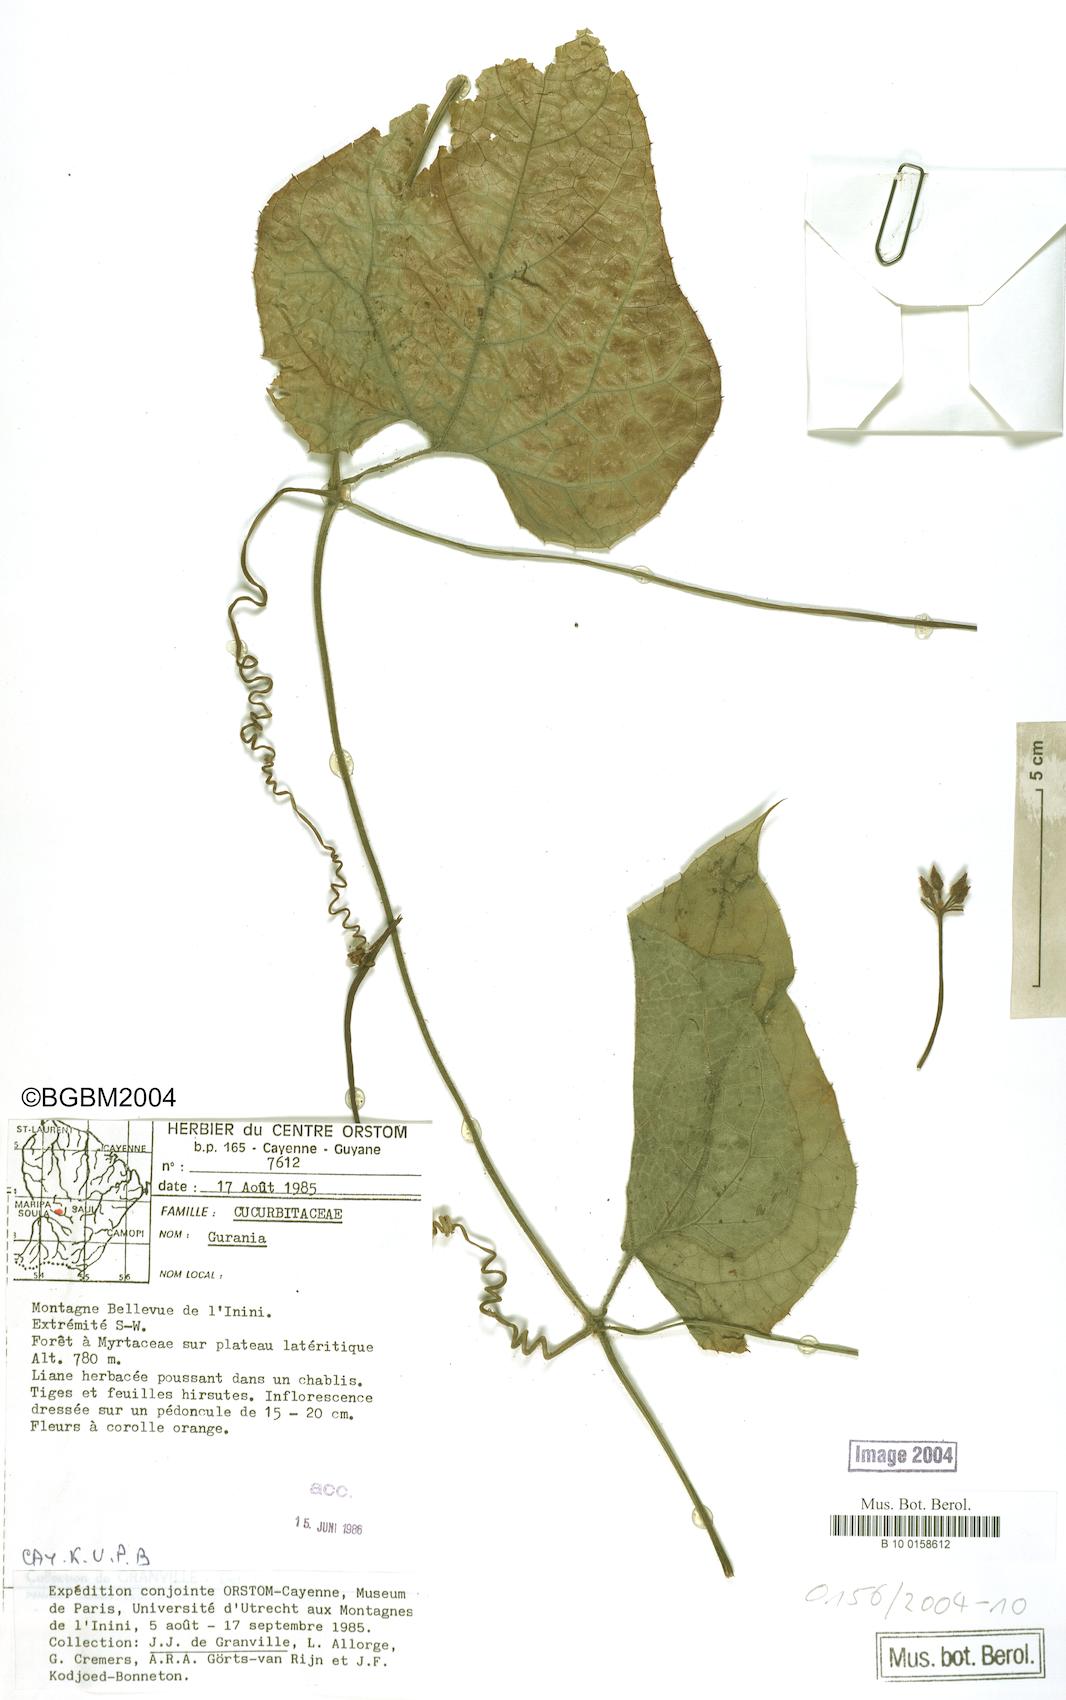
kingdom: Plantae
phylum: Tracheophyta
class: Magnoliopsida
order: Cucurbitales
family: Cucurbitaceae
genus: Gurania
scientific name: Gurania bignoniacea
